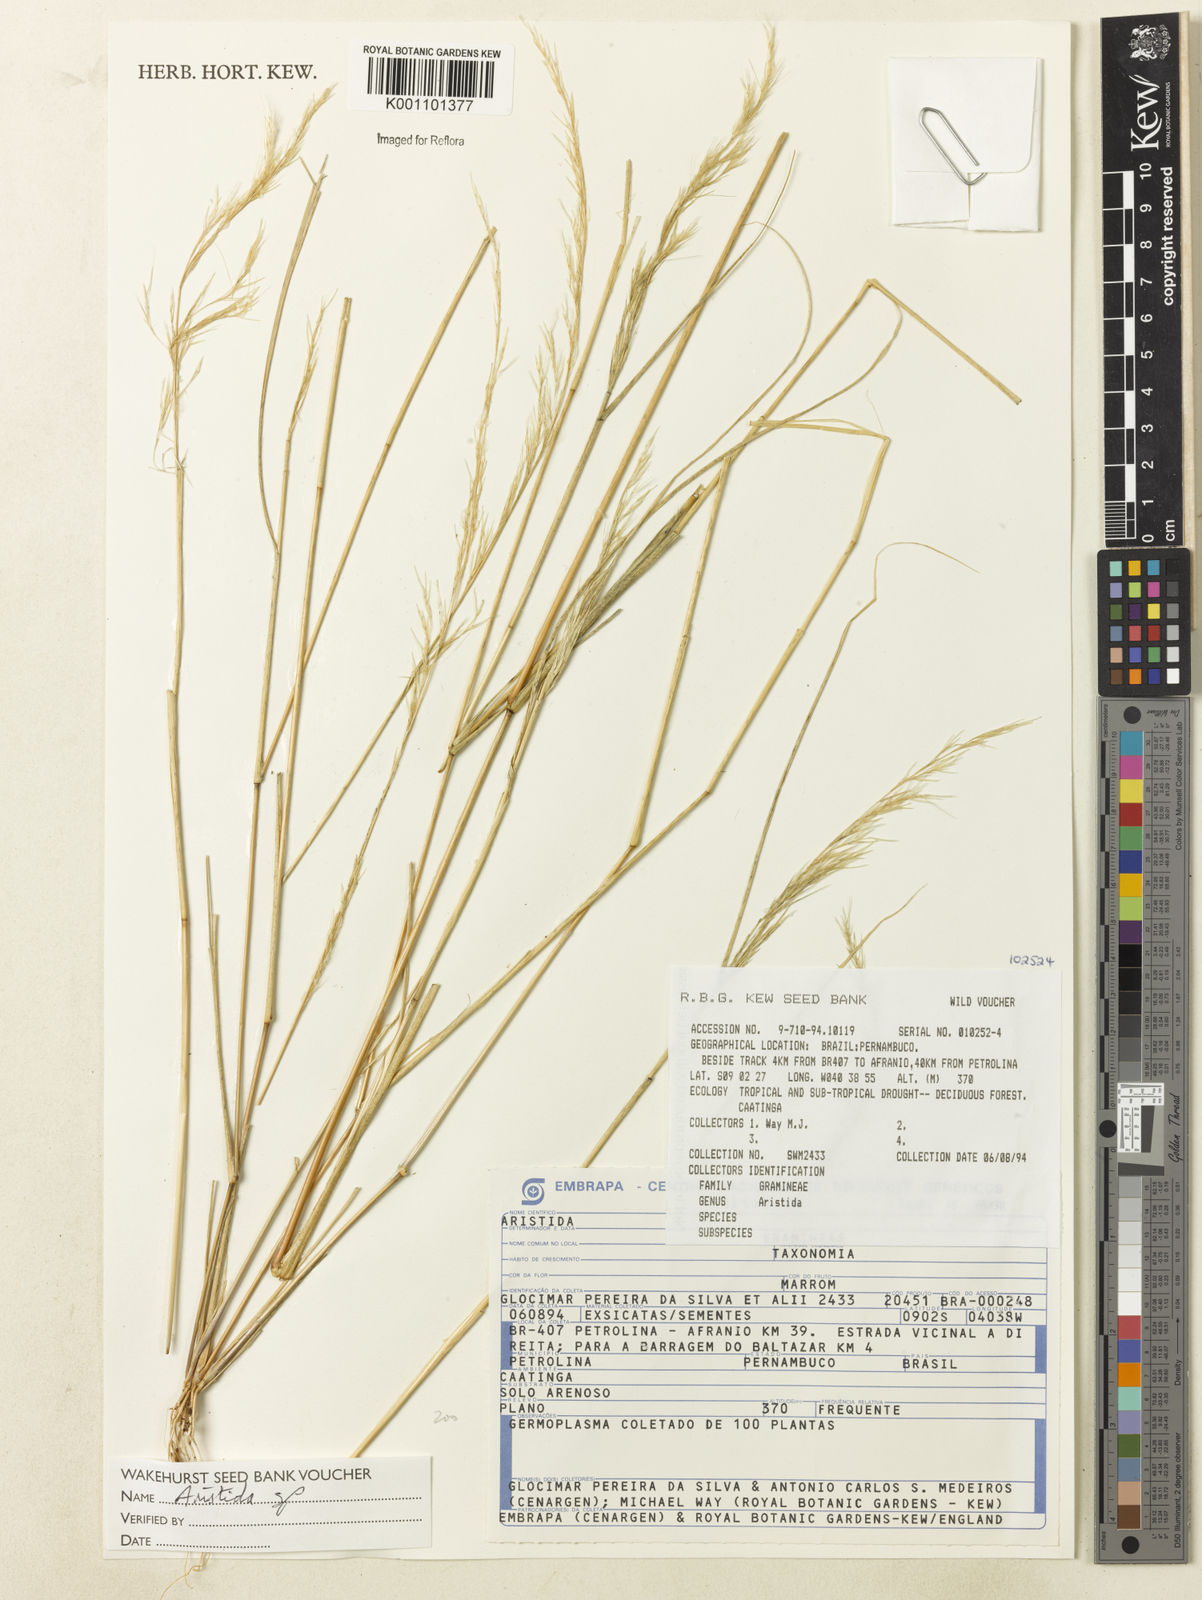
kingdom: Plantae
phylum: Tracheophyta
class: Liliopsida
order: Poales
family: Poaceae
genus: Aristida
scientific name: Aristida
